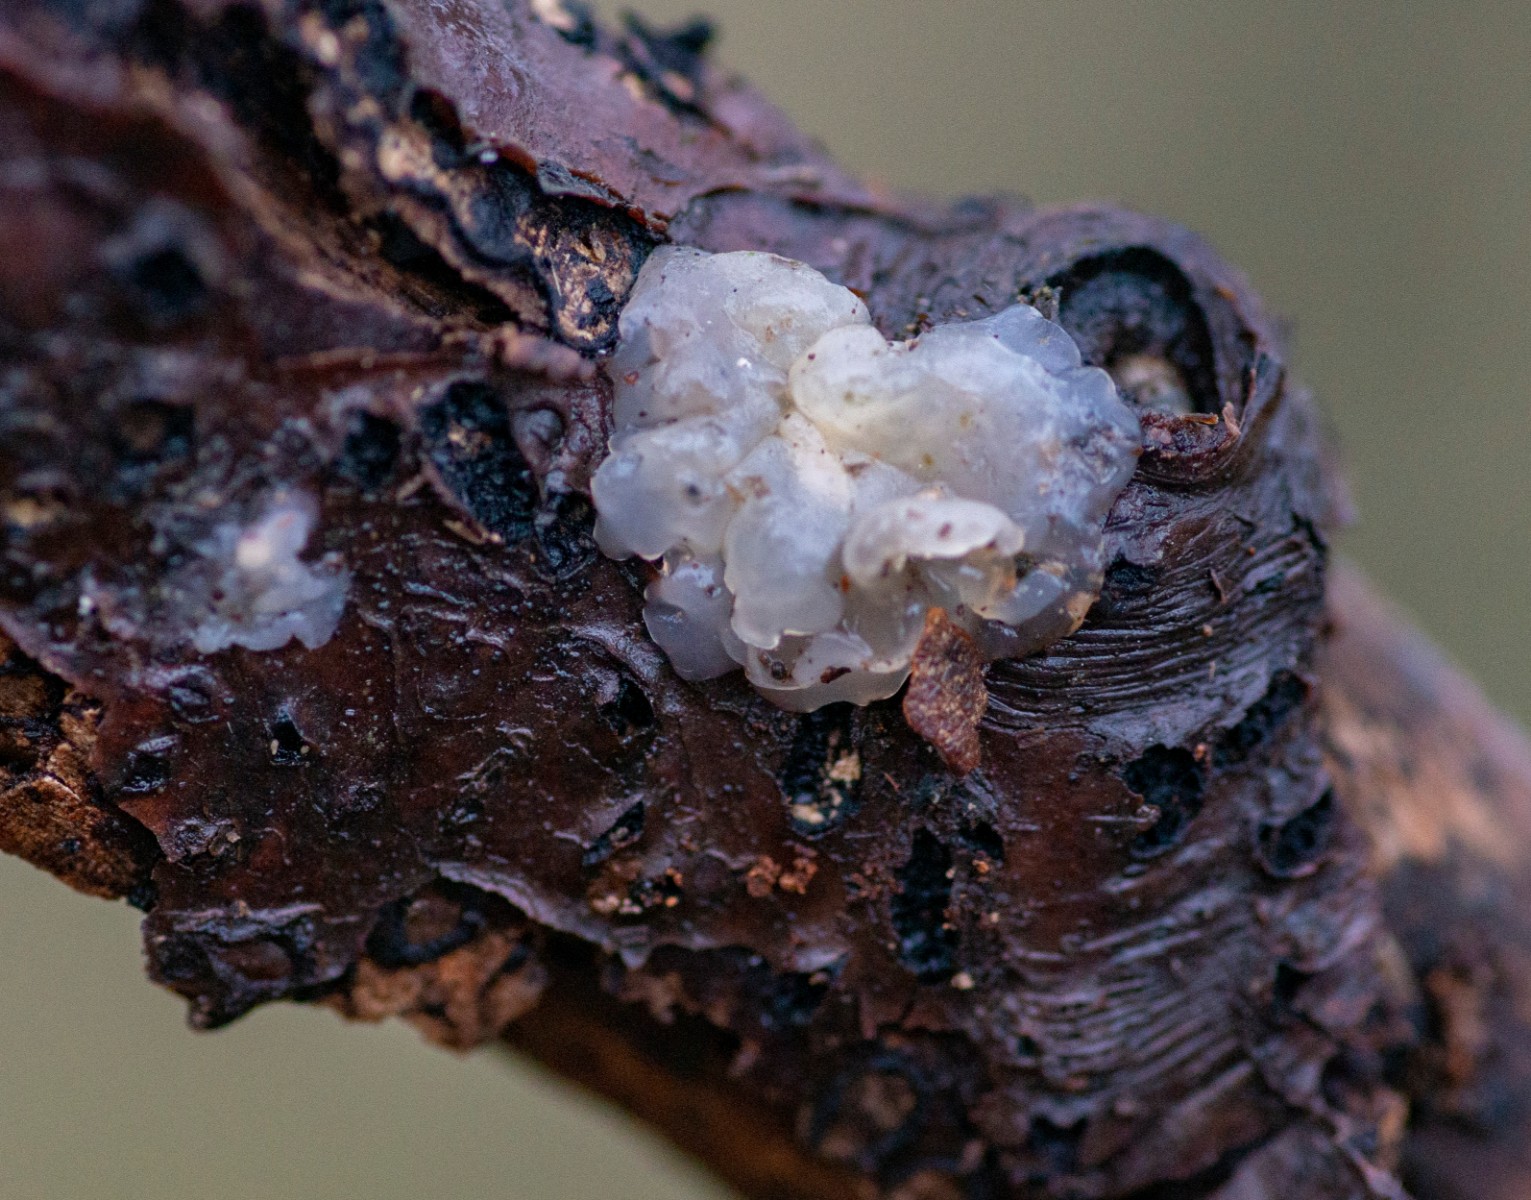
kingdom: Fungi
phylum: Basidiomycota
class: Agaricomycetes
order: Auriculariales
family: Hyaloriaceae
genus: Myxarium
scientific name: Myxarium nucleatum
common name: klar bævretop
